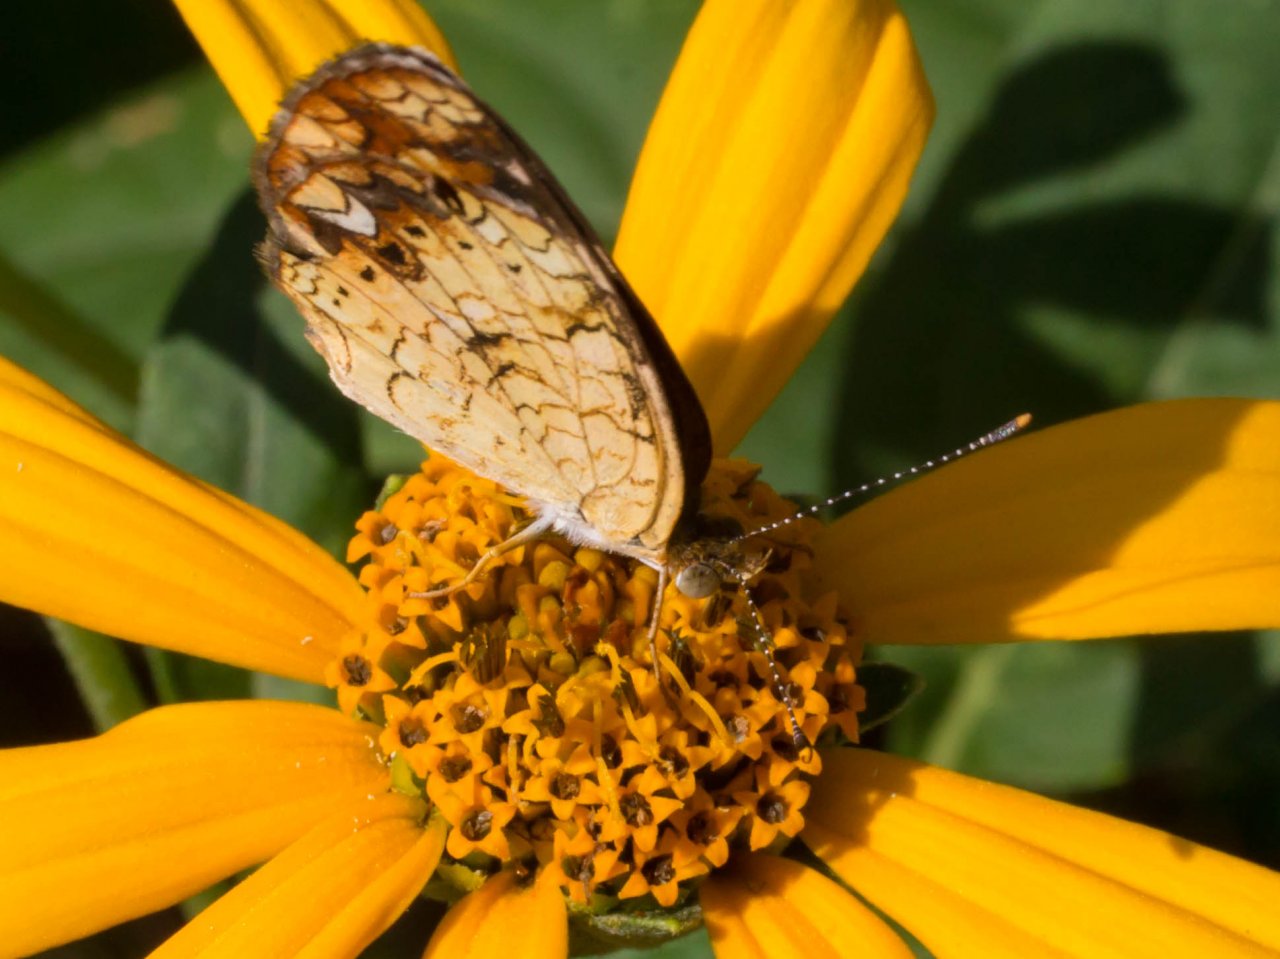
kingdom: Animalia
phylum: Arthropoda
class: Insecta
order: Lepidoptera
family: Nymphalidae
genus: Phyciodes
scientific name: Phyciodes tharos
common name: Pearl Crescent
